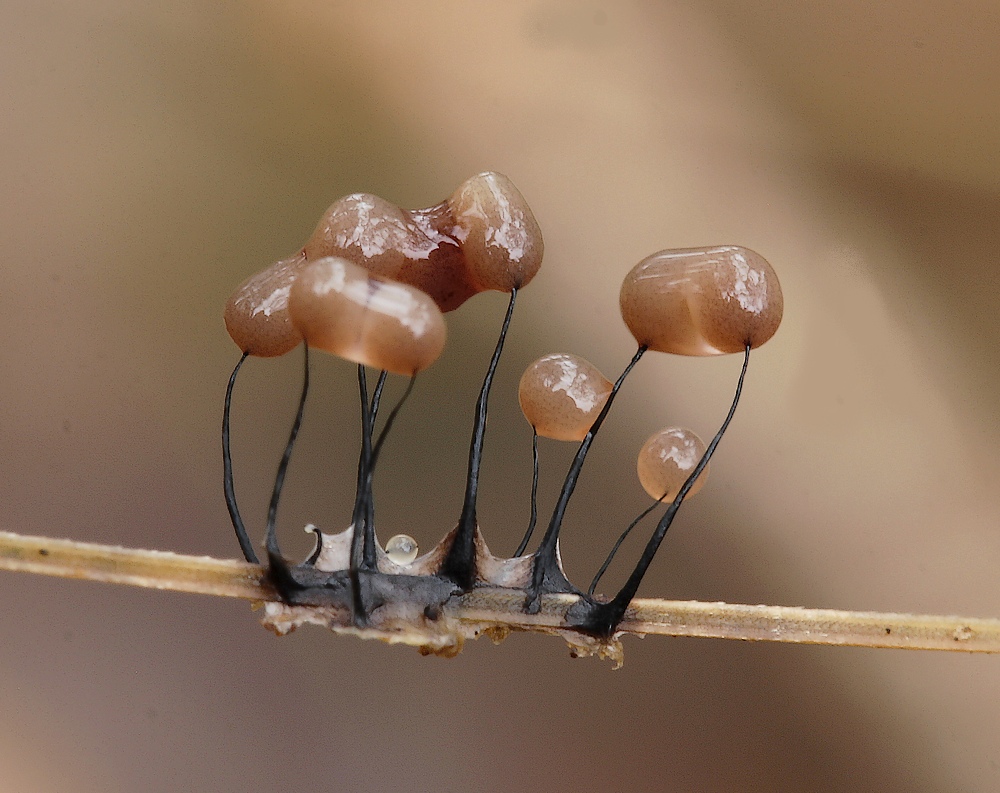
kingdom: Protozoa
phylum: Mycetozoa
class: Myxomycetes
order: Stemonitidales
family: Stemonitidaceae
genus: Comatricha
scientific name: Comatricha nigra
